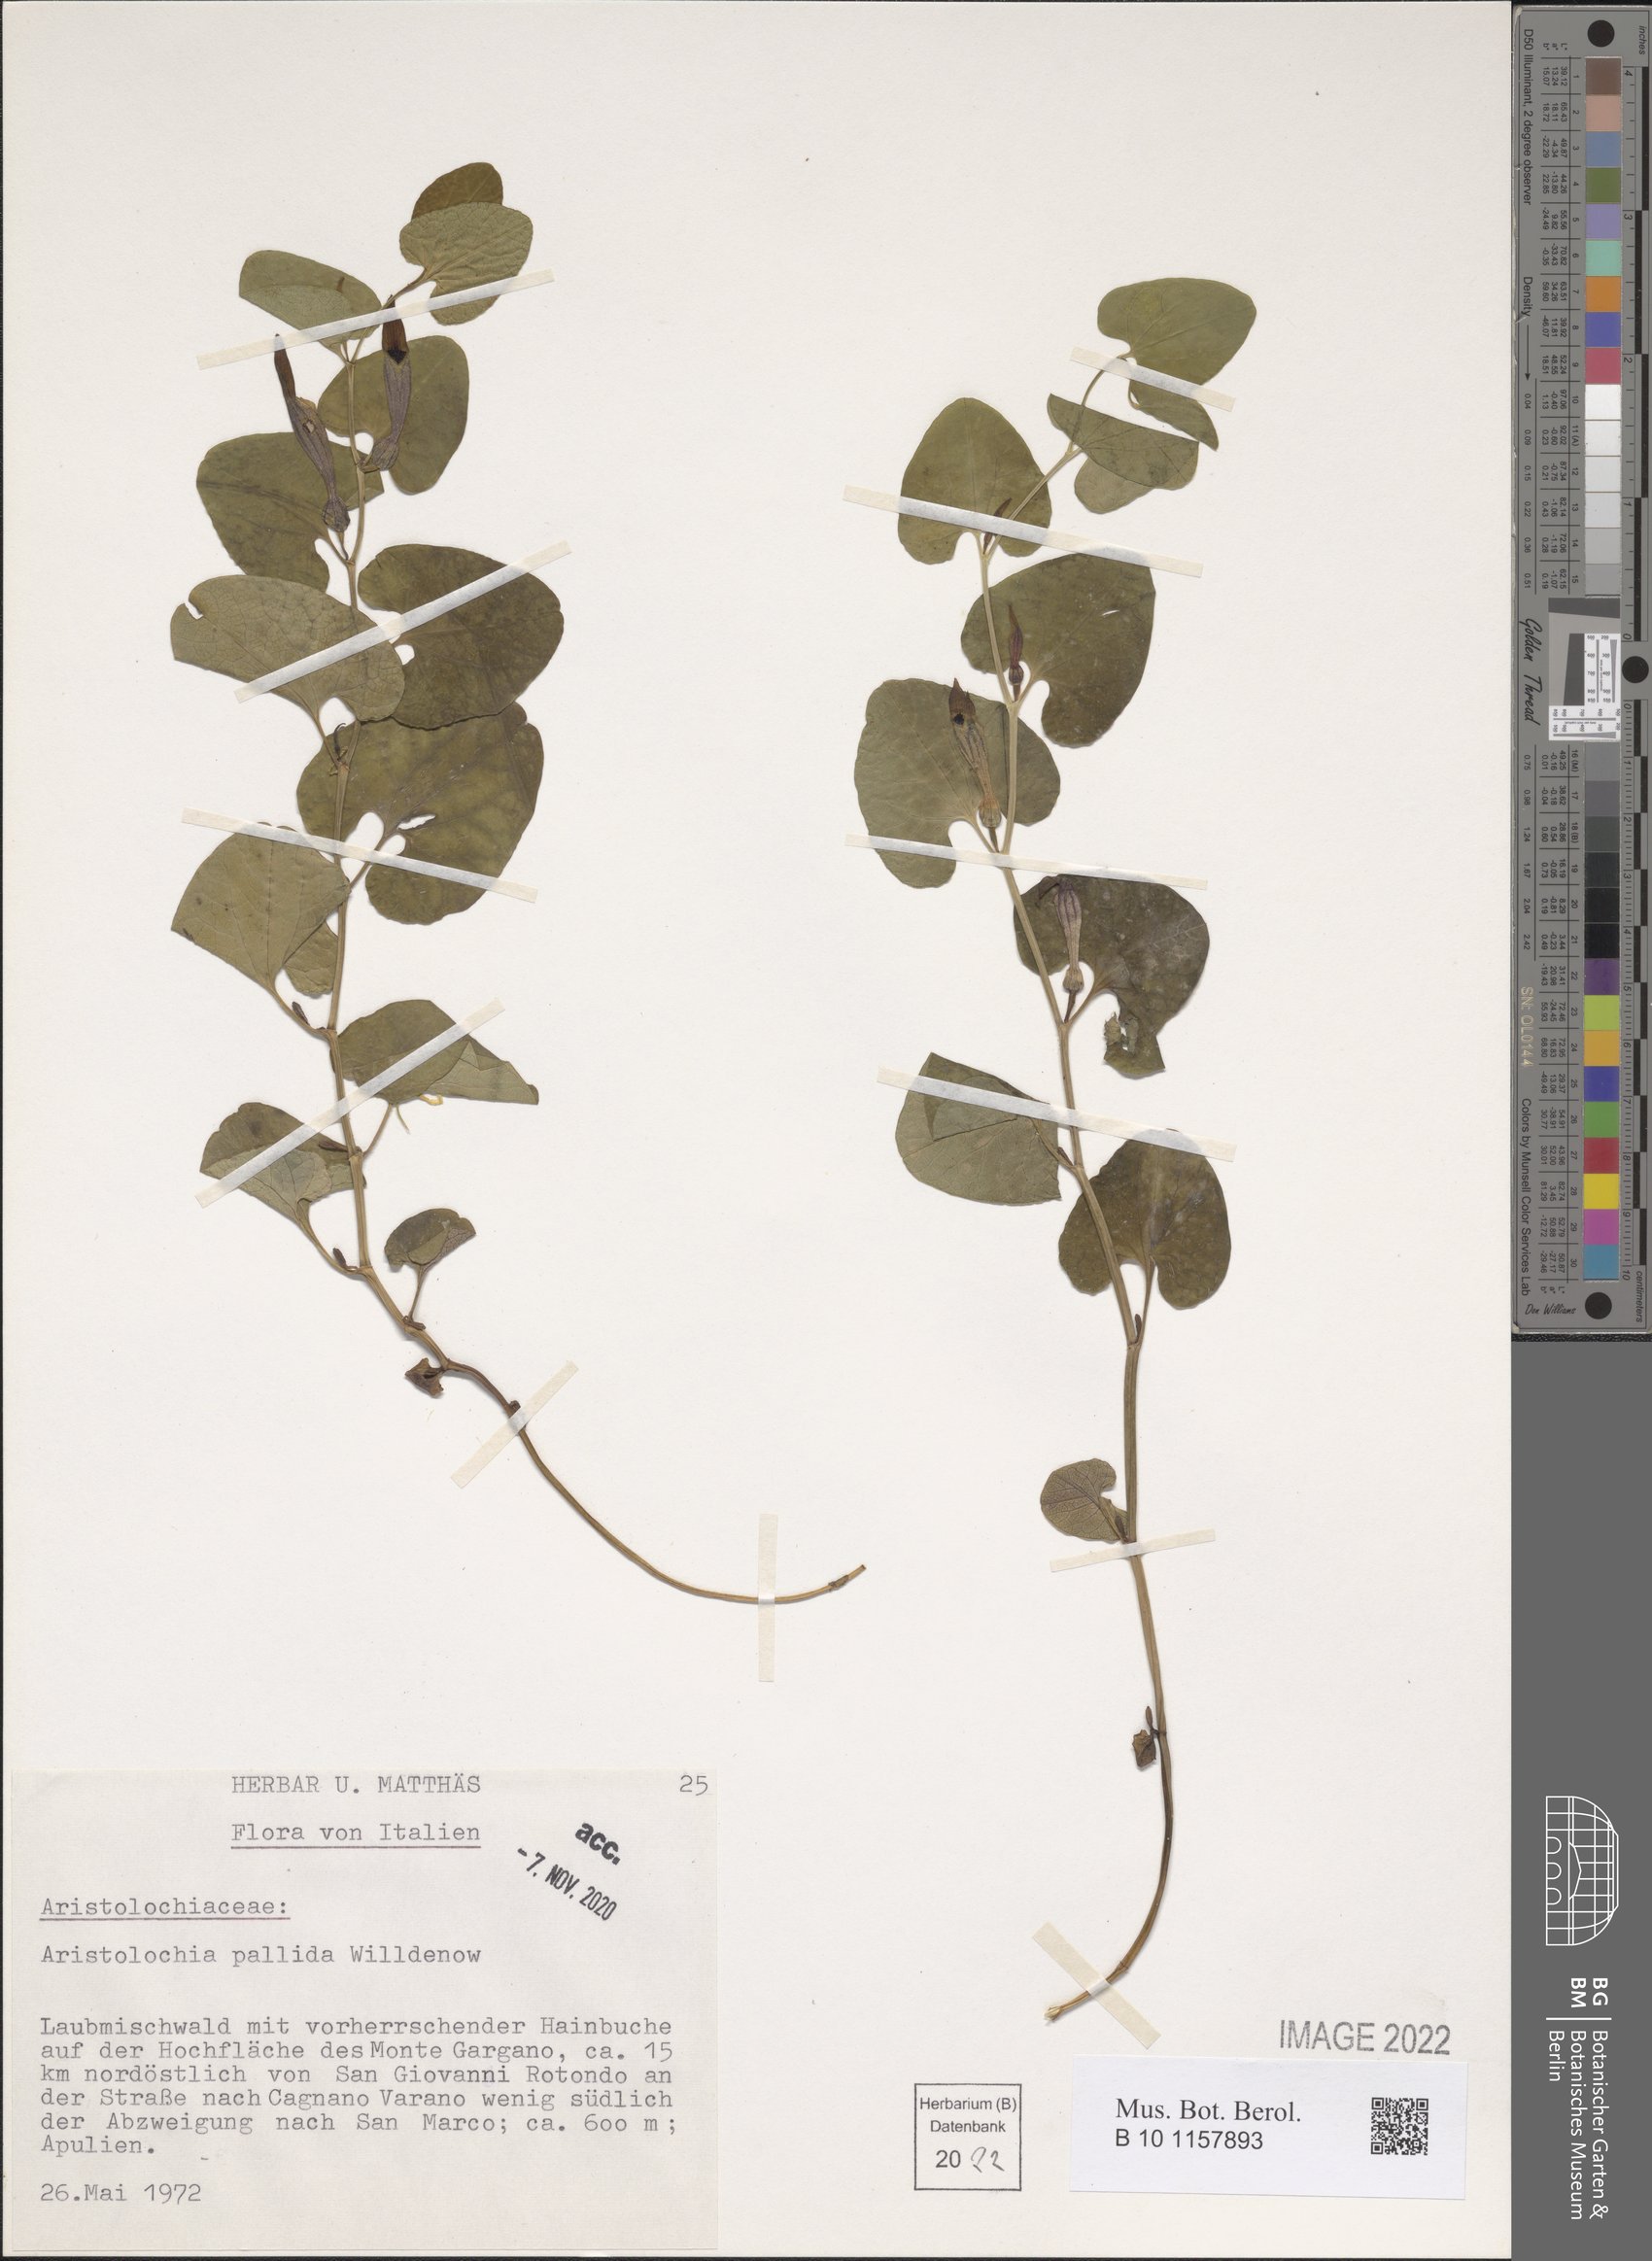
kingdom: Plantae
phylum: Tracheophyta
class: Magnoliopsida
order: Piperales
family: Aristolochiaceae
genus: Aristolochia
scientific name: Aristolochia pallida
